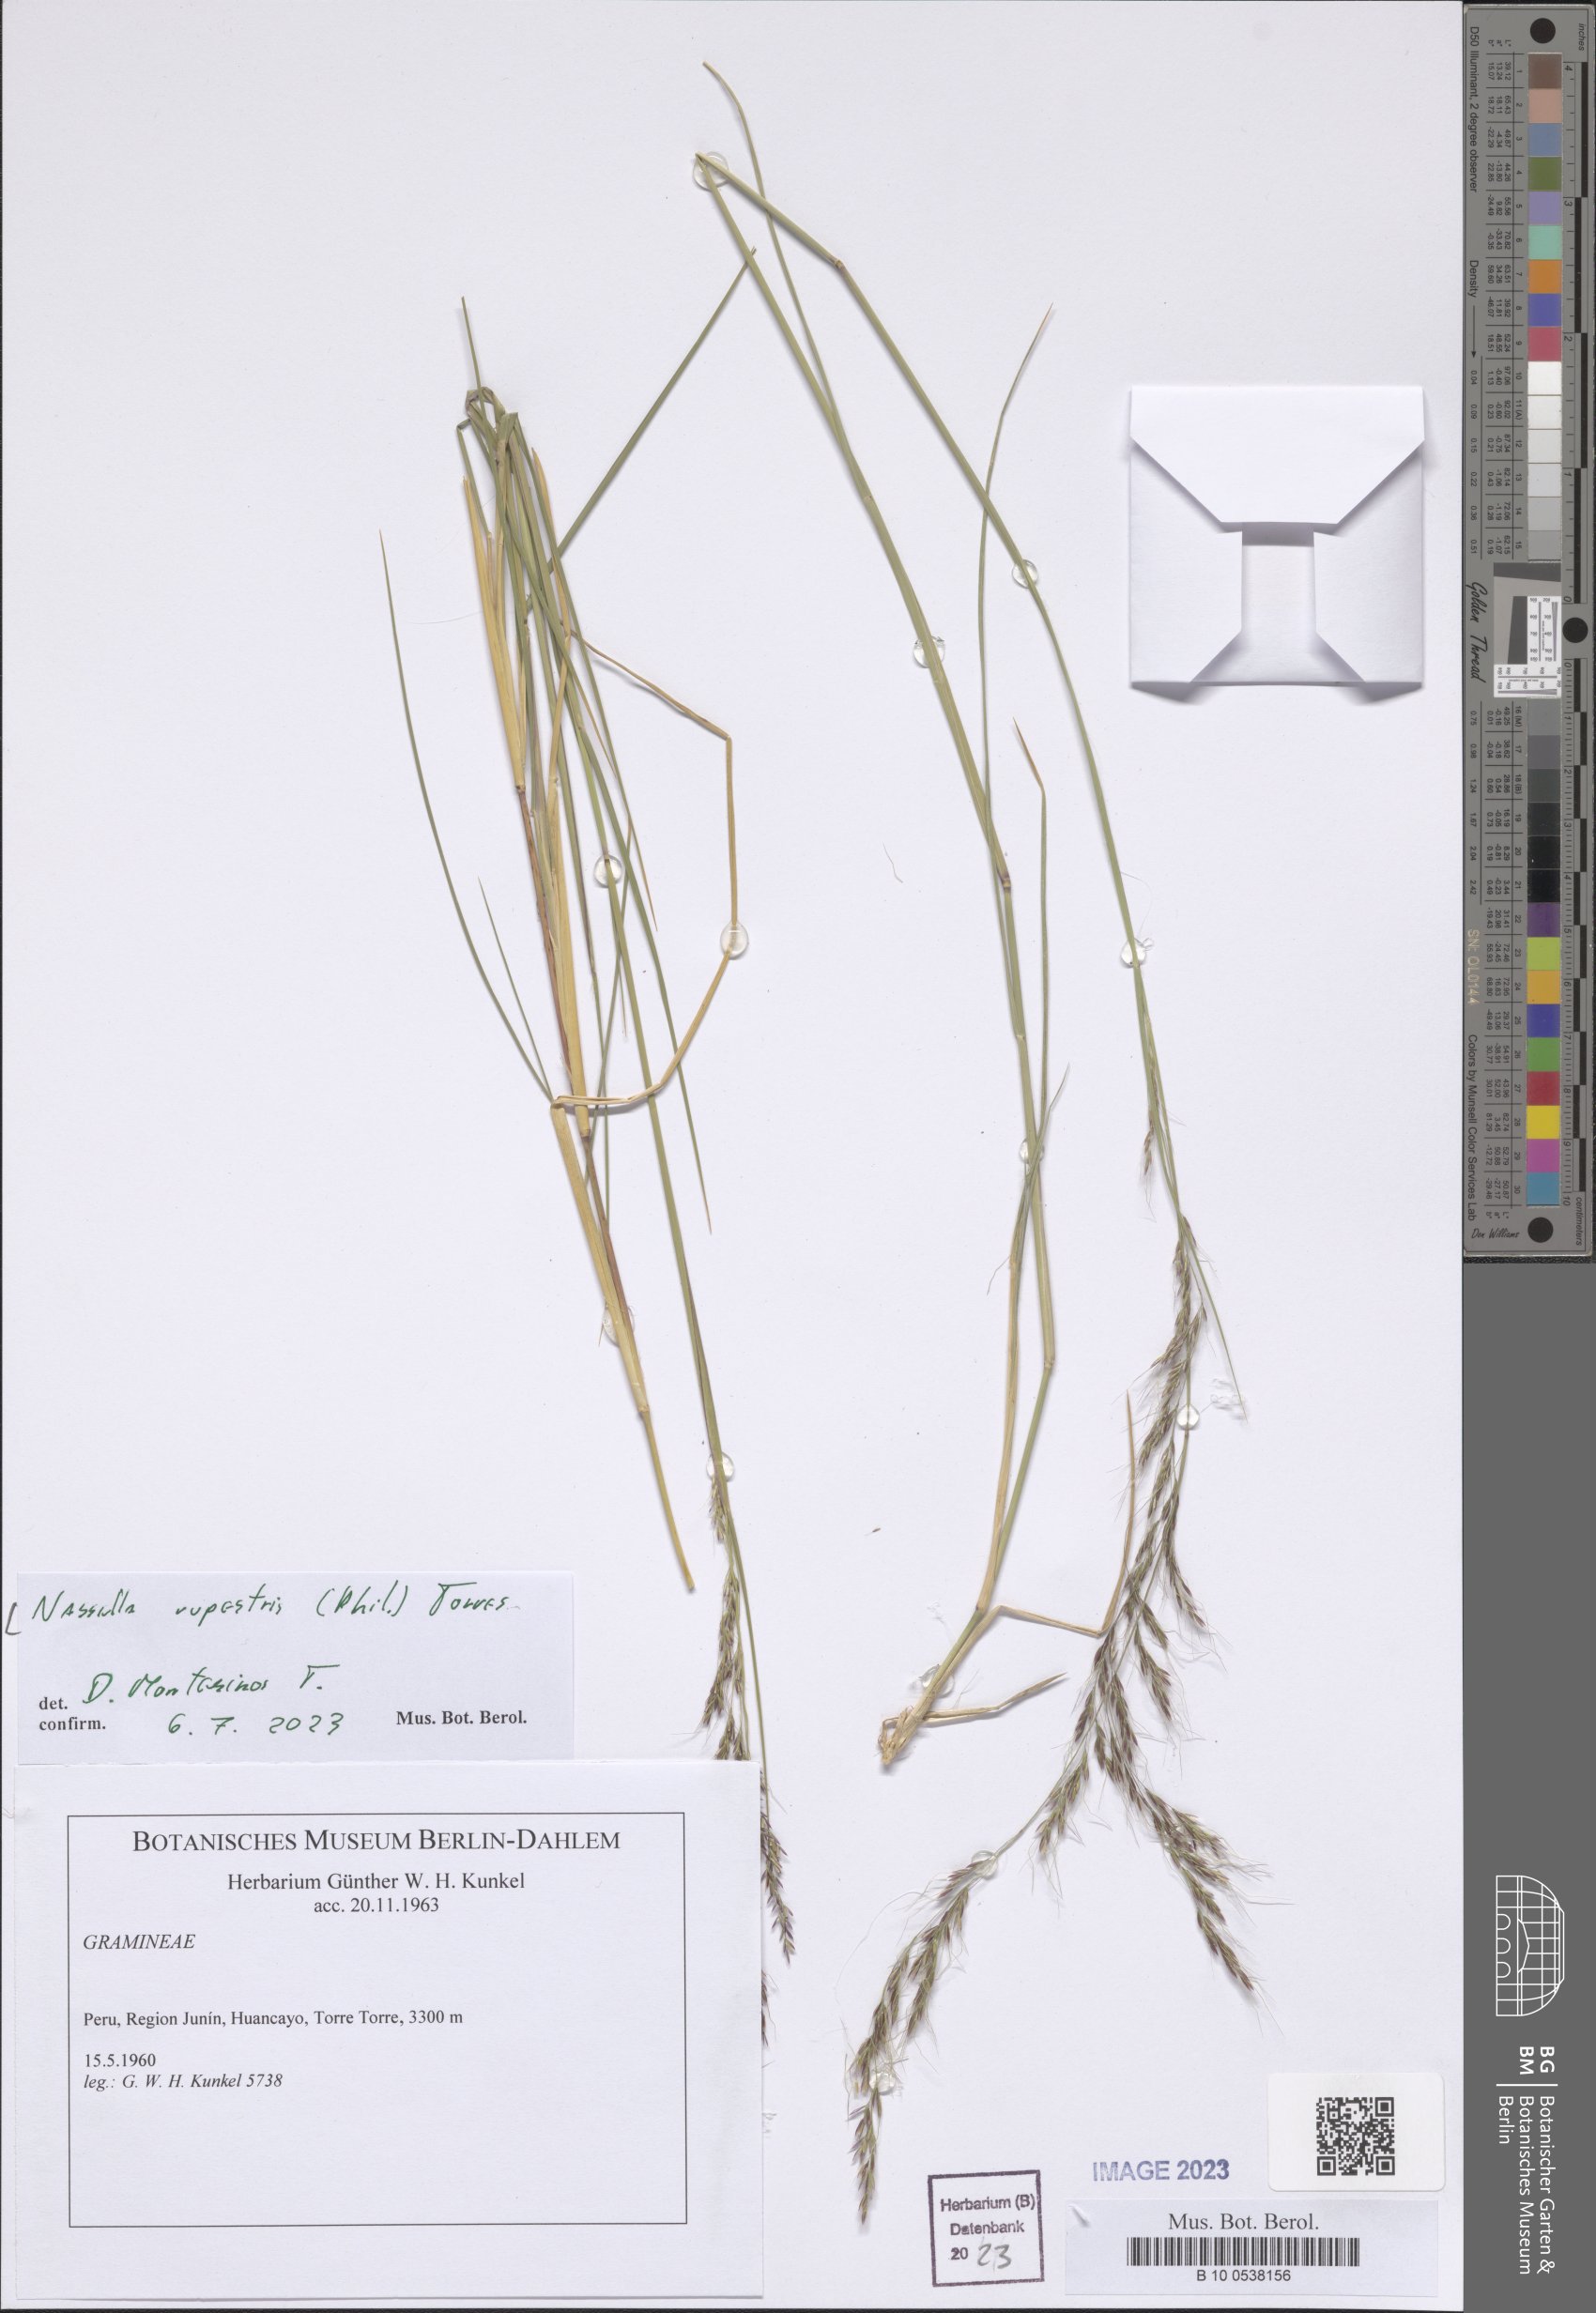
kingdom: Plantae
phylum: Tracheophyta
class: Liliopsida
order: Poales
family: Poaceae
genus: Nassella
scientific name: Nassella rupestris
